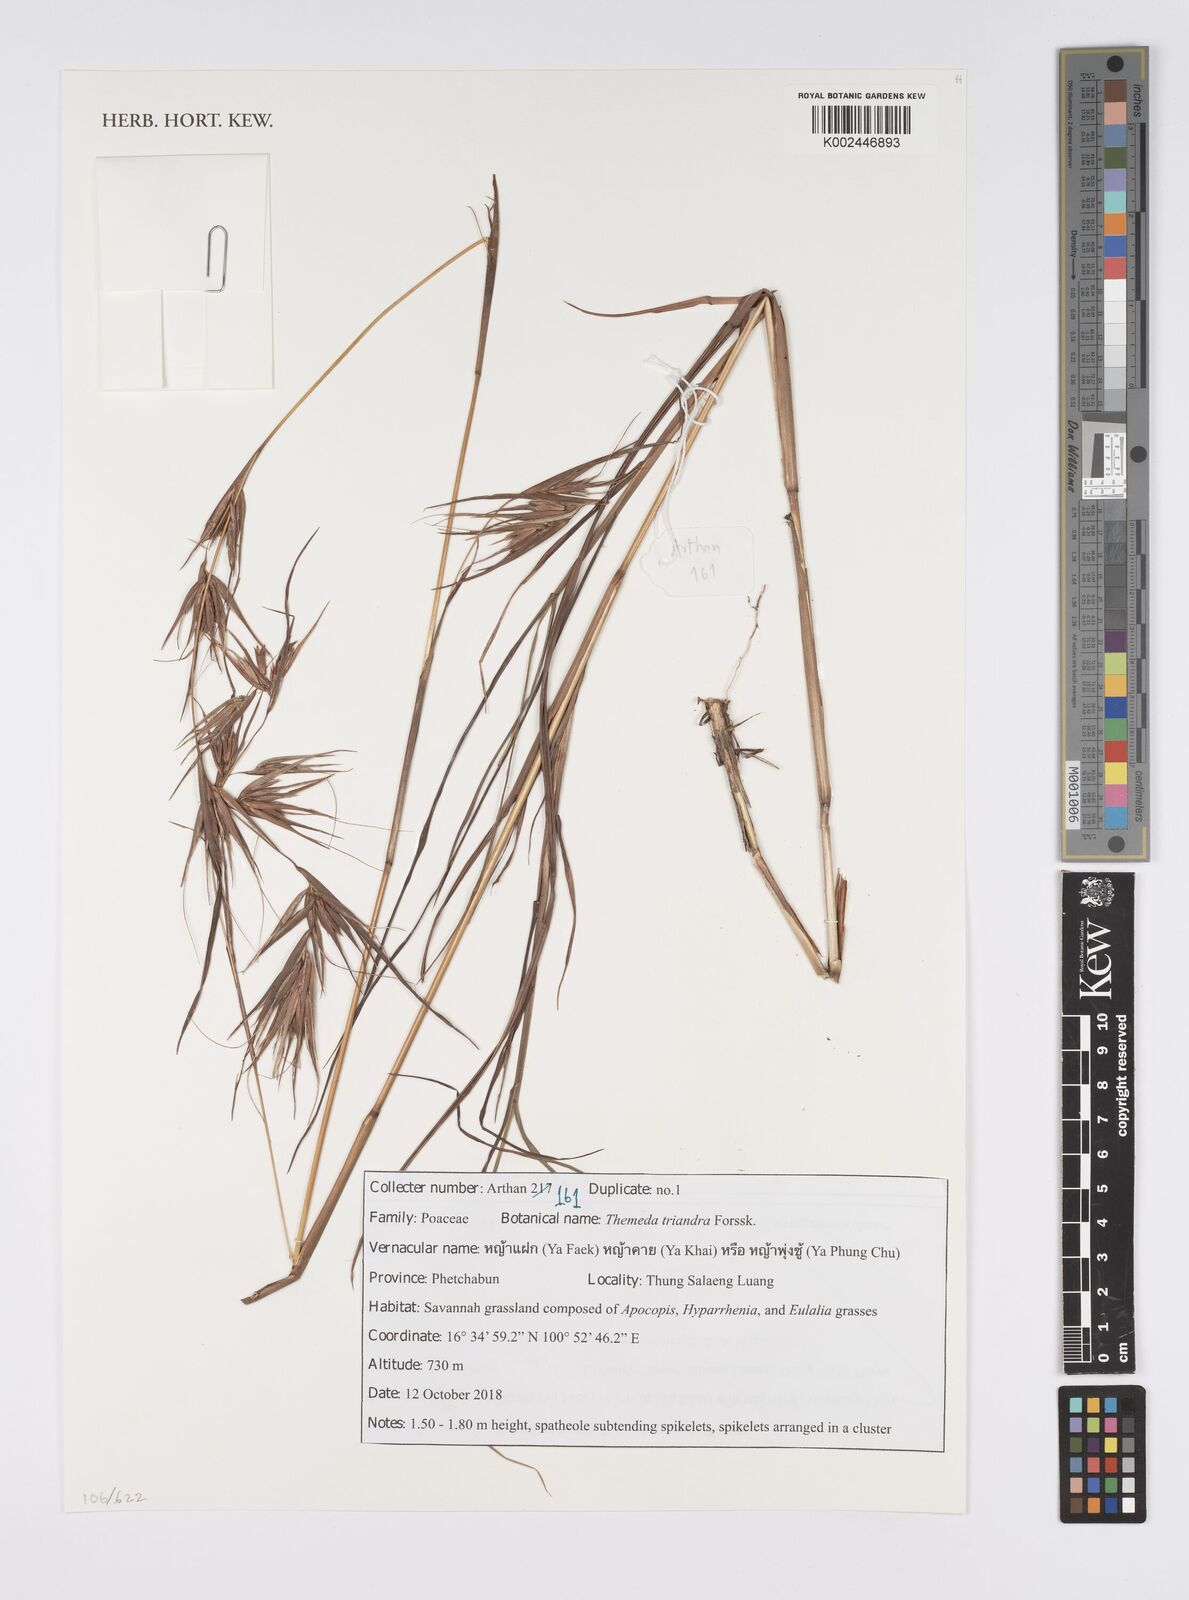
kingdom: Plantae
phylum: Tracheophyta
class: Liliopsida
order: Poales
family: Poaceae
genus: Themeda
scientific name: Themeda triandra
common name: Kangaroo grass
